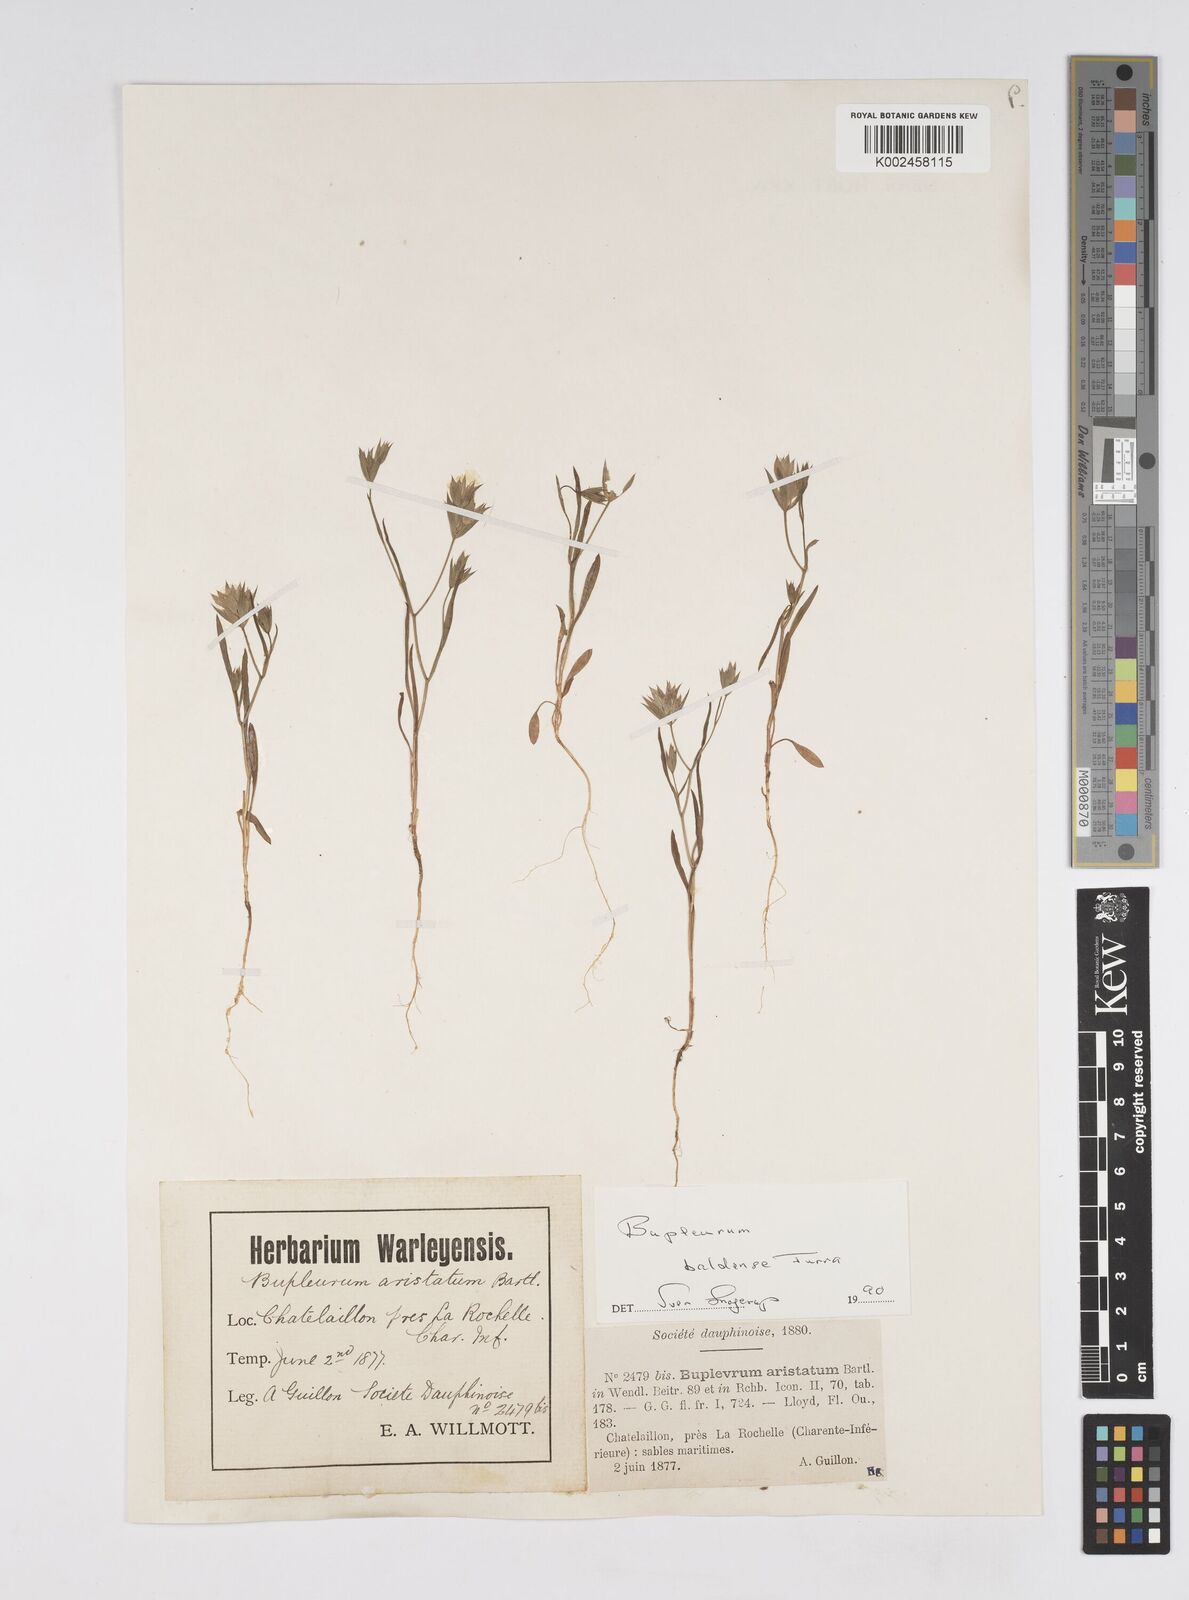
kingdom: Plantae
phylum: Tracheophyta
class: Magnoliopsida
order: Apiales
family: Apiaceae
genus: Bupleurum
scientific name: Bupleurum baldense
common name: Small hare's-ear
